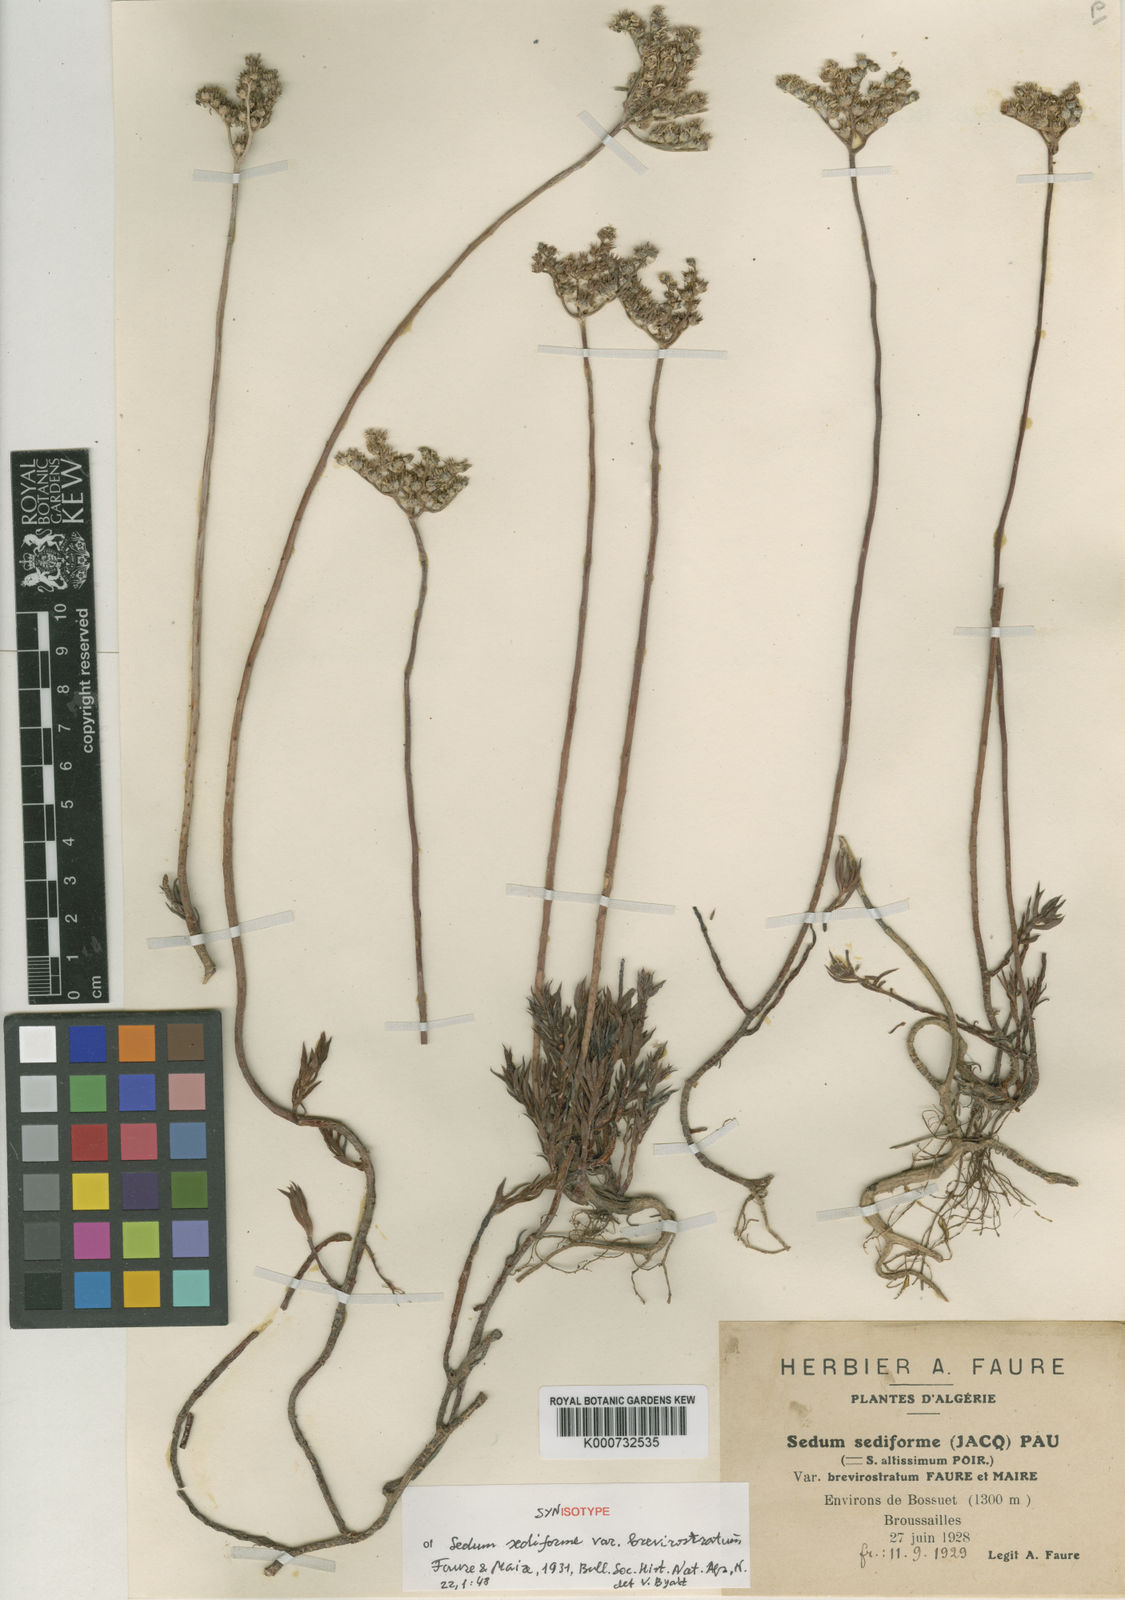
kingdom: Plantae
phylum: Tracheophyta
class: Magnoliopsida
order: Saxifragales
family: Crassulaceae
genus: Petrosedum
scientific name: Petrosedum sediforme
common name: Pale stonecrop
